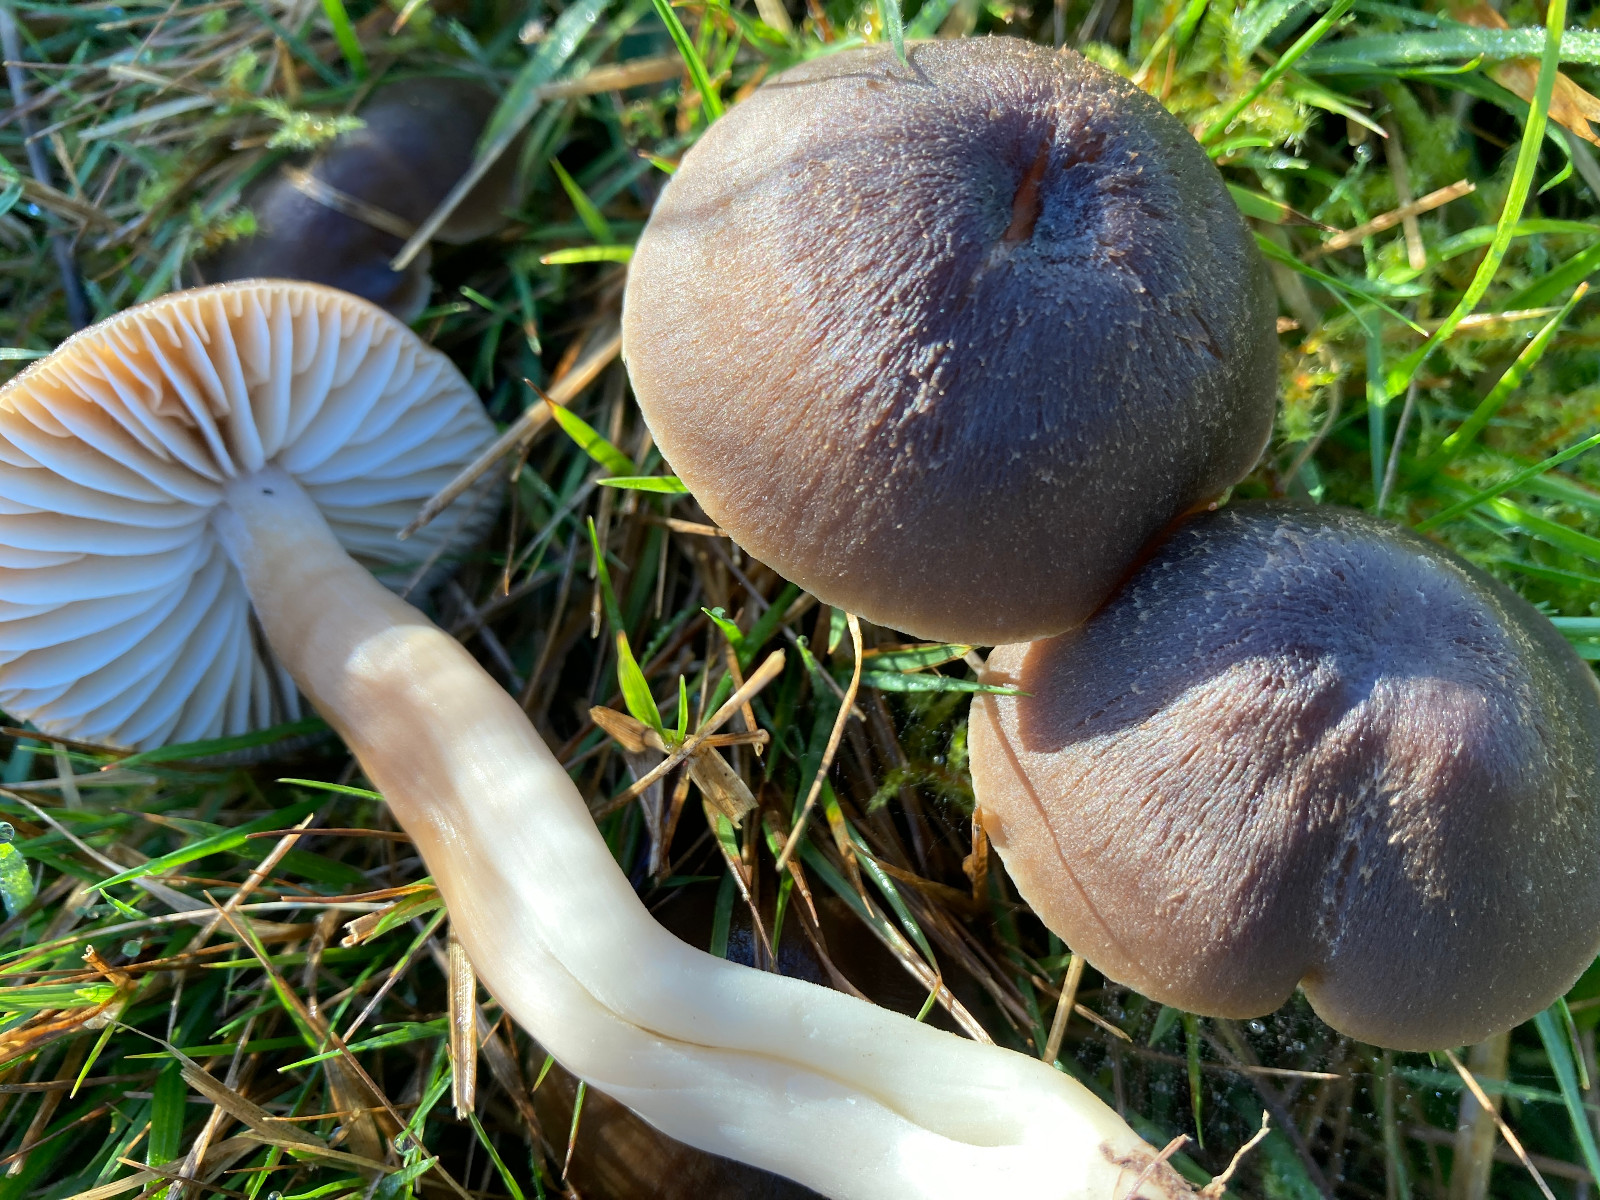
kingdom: Fungi
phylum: Basidiomycota
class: Agaricomycetes
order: Agaricales
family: Hygrophoraceae
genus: Neohygrocybe
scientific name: Neohygrocybe nitrata
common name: stinkende vokshat
